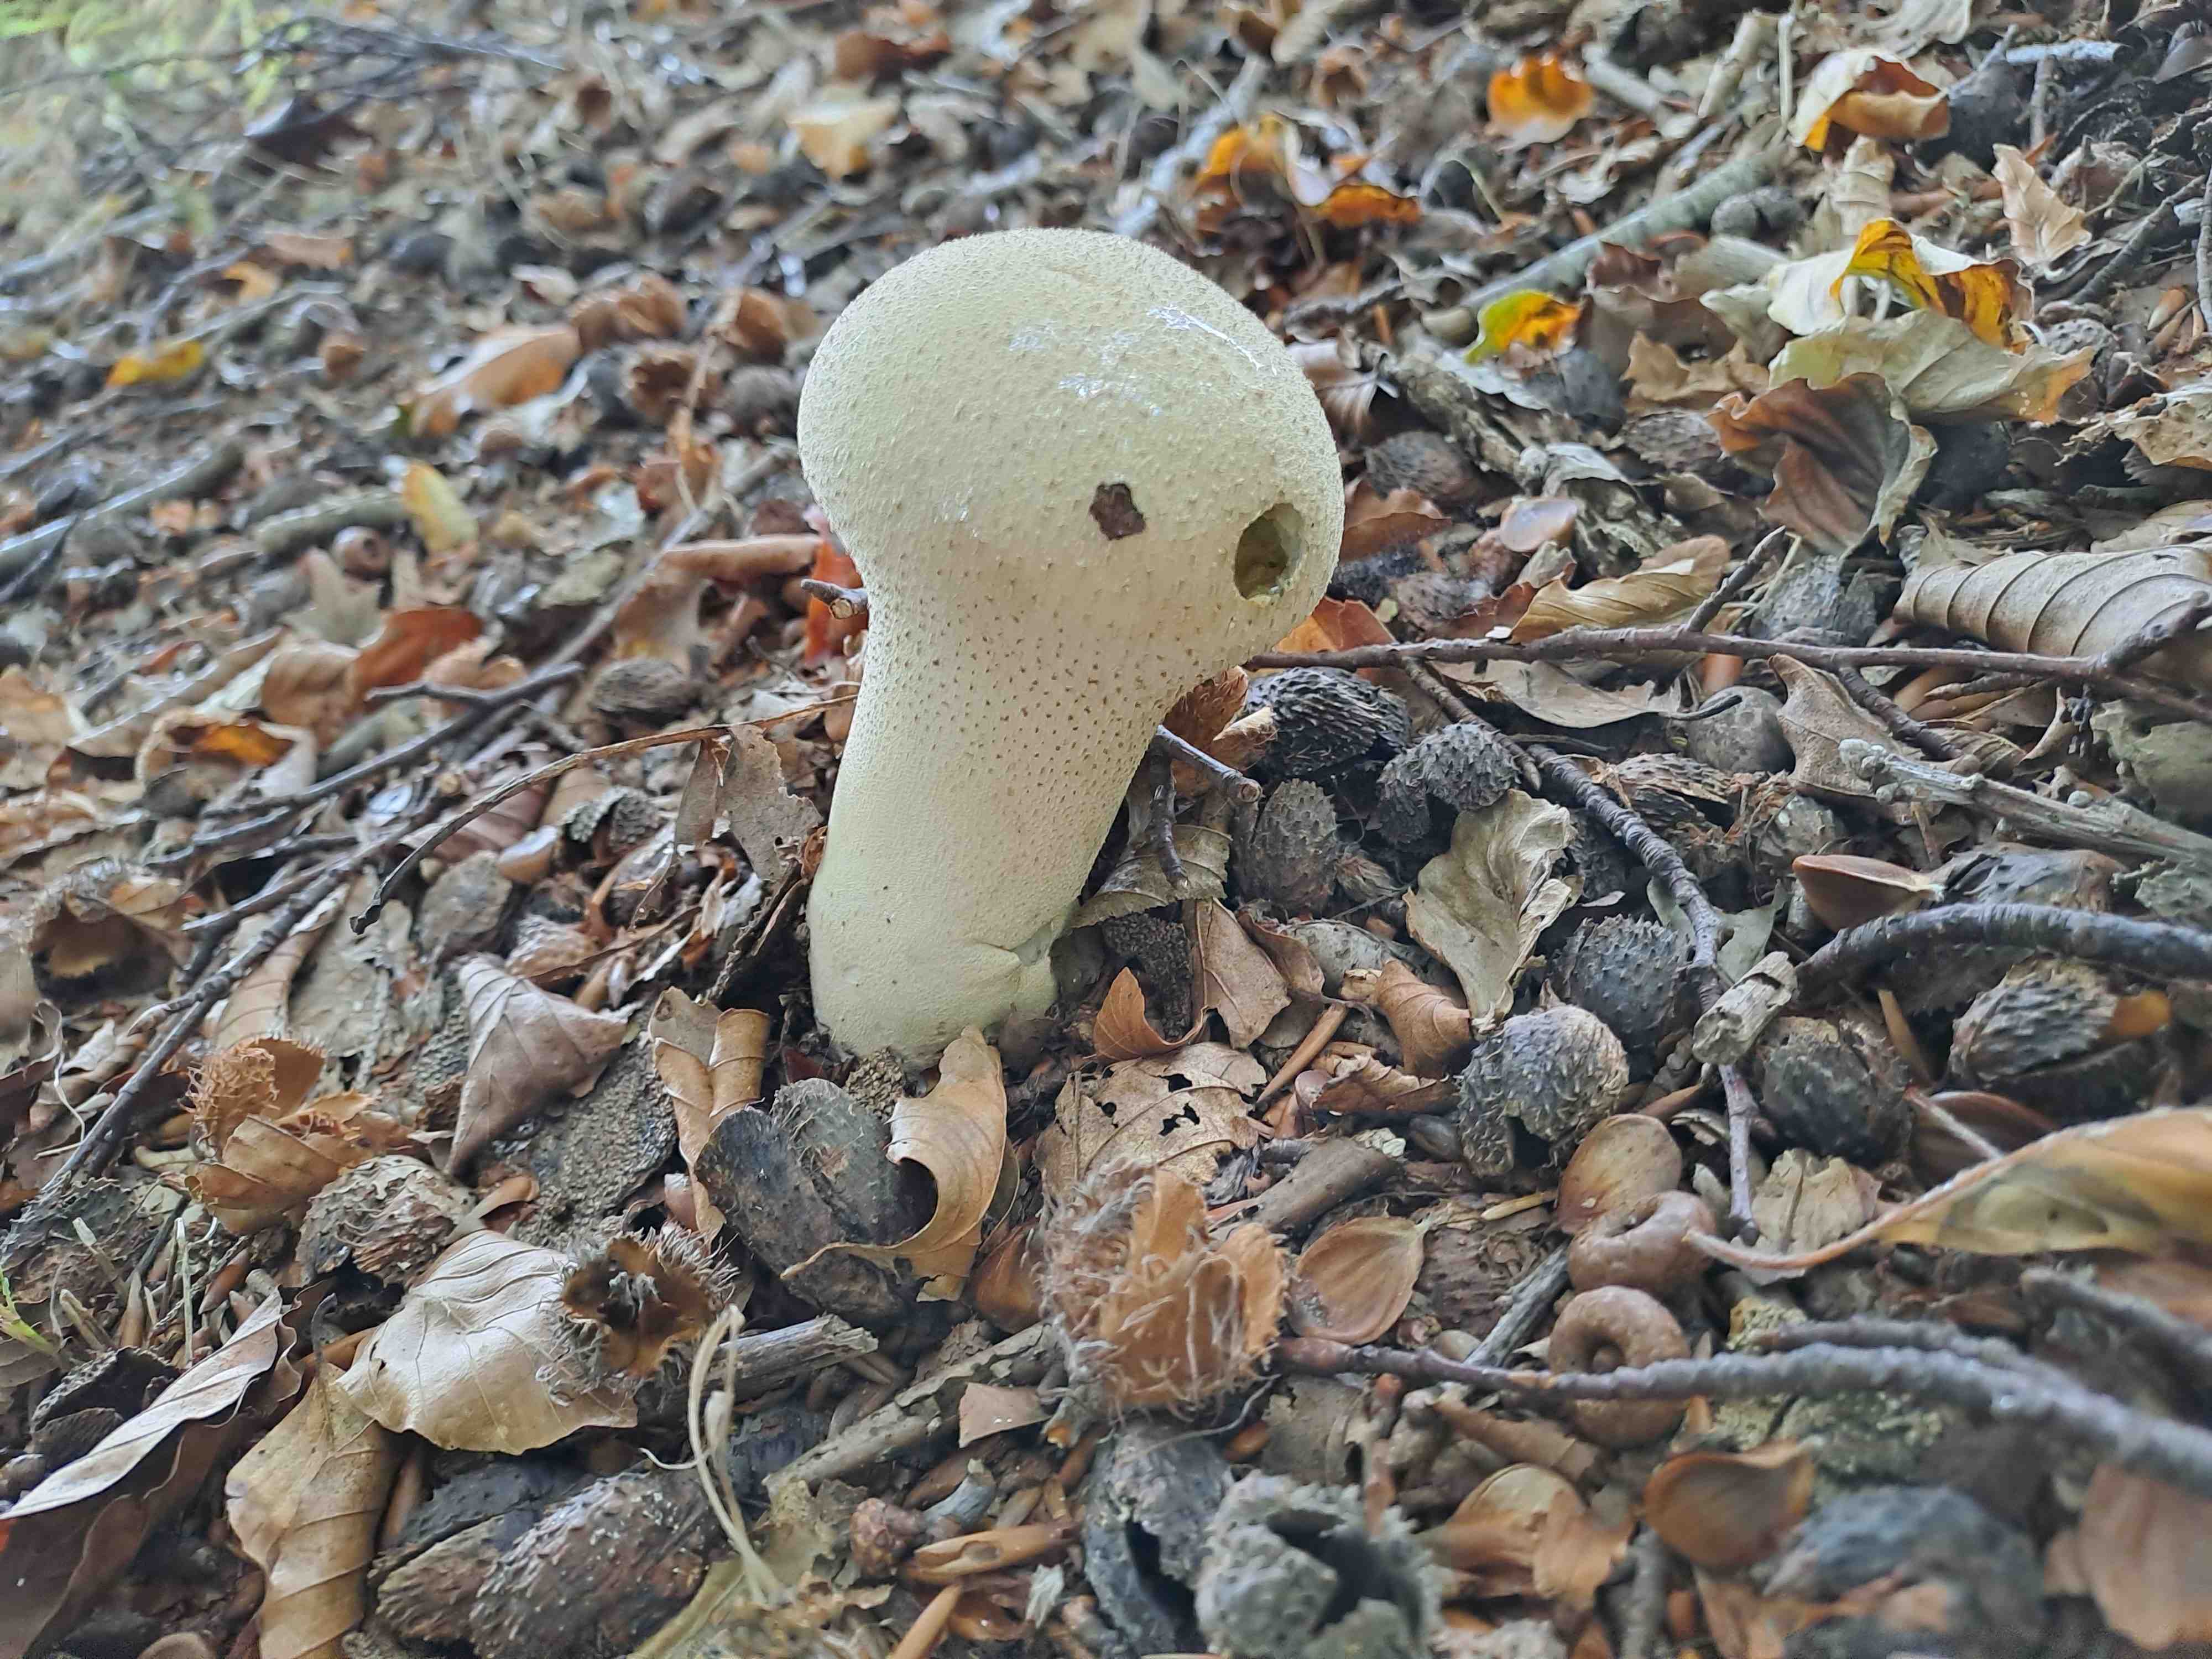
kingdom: Fungi
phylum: Basidiomycota
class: Agaricomycetes
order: Agaricales
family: Lycoperdaceae
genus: Lycoperdon
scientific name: Lycoperdon excipuliforme
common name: højstokket støvbold
